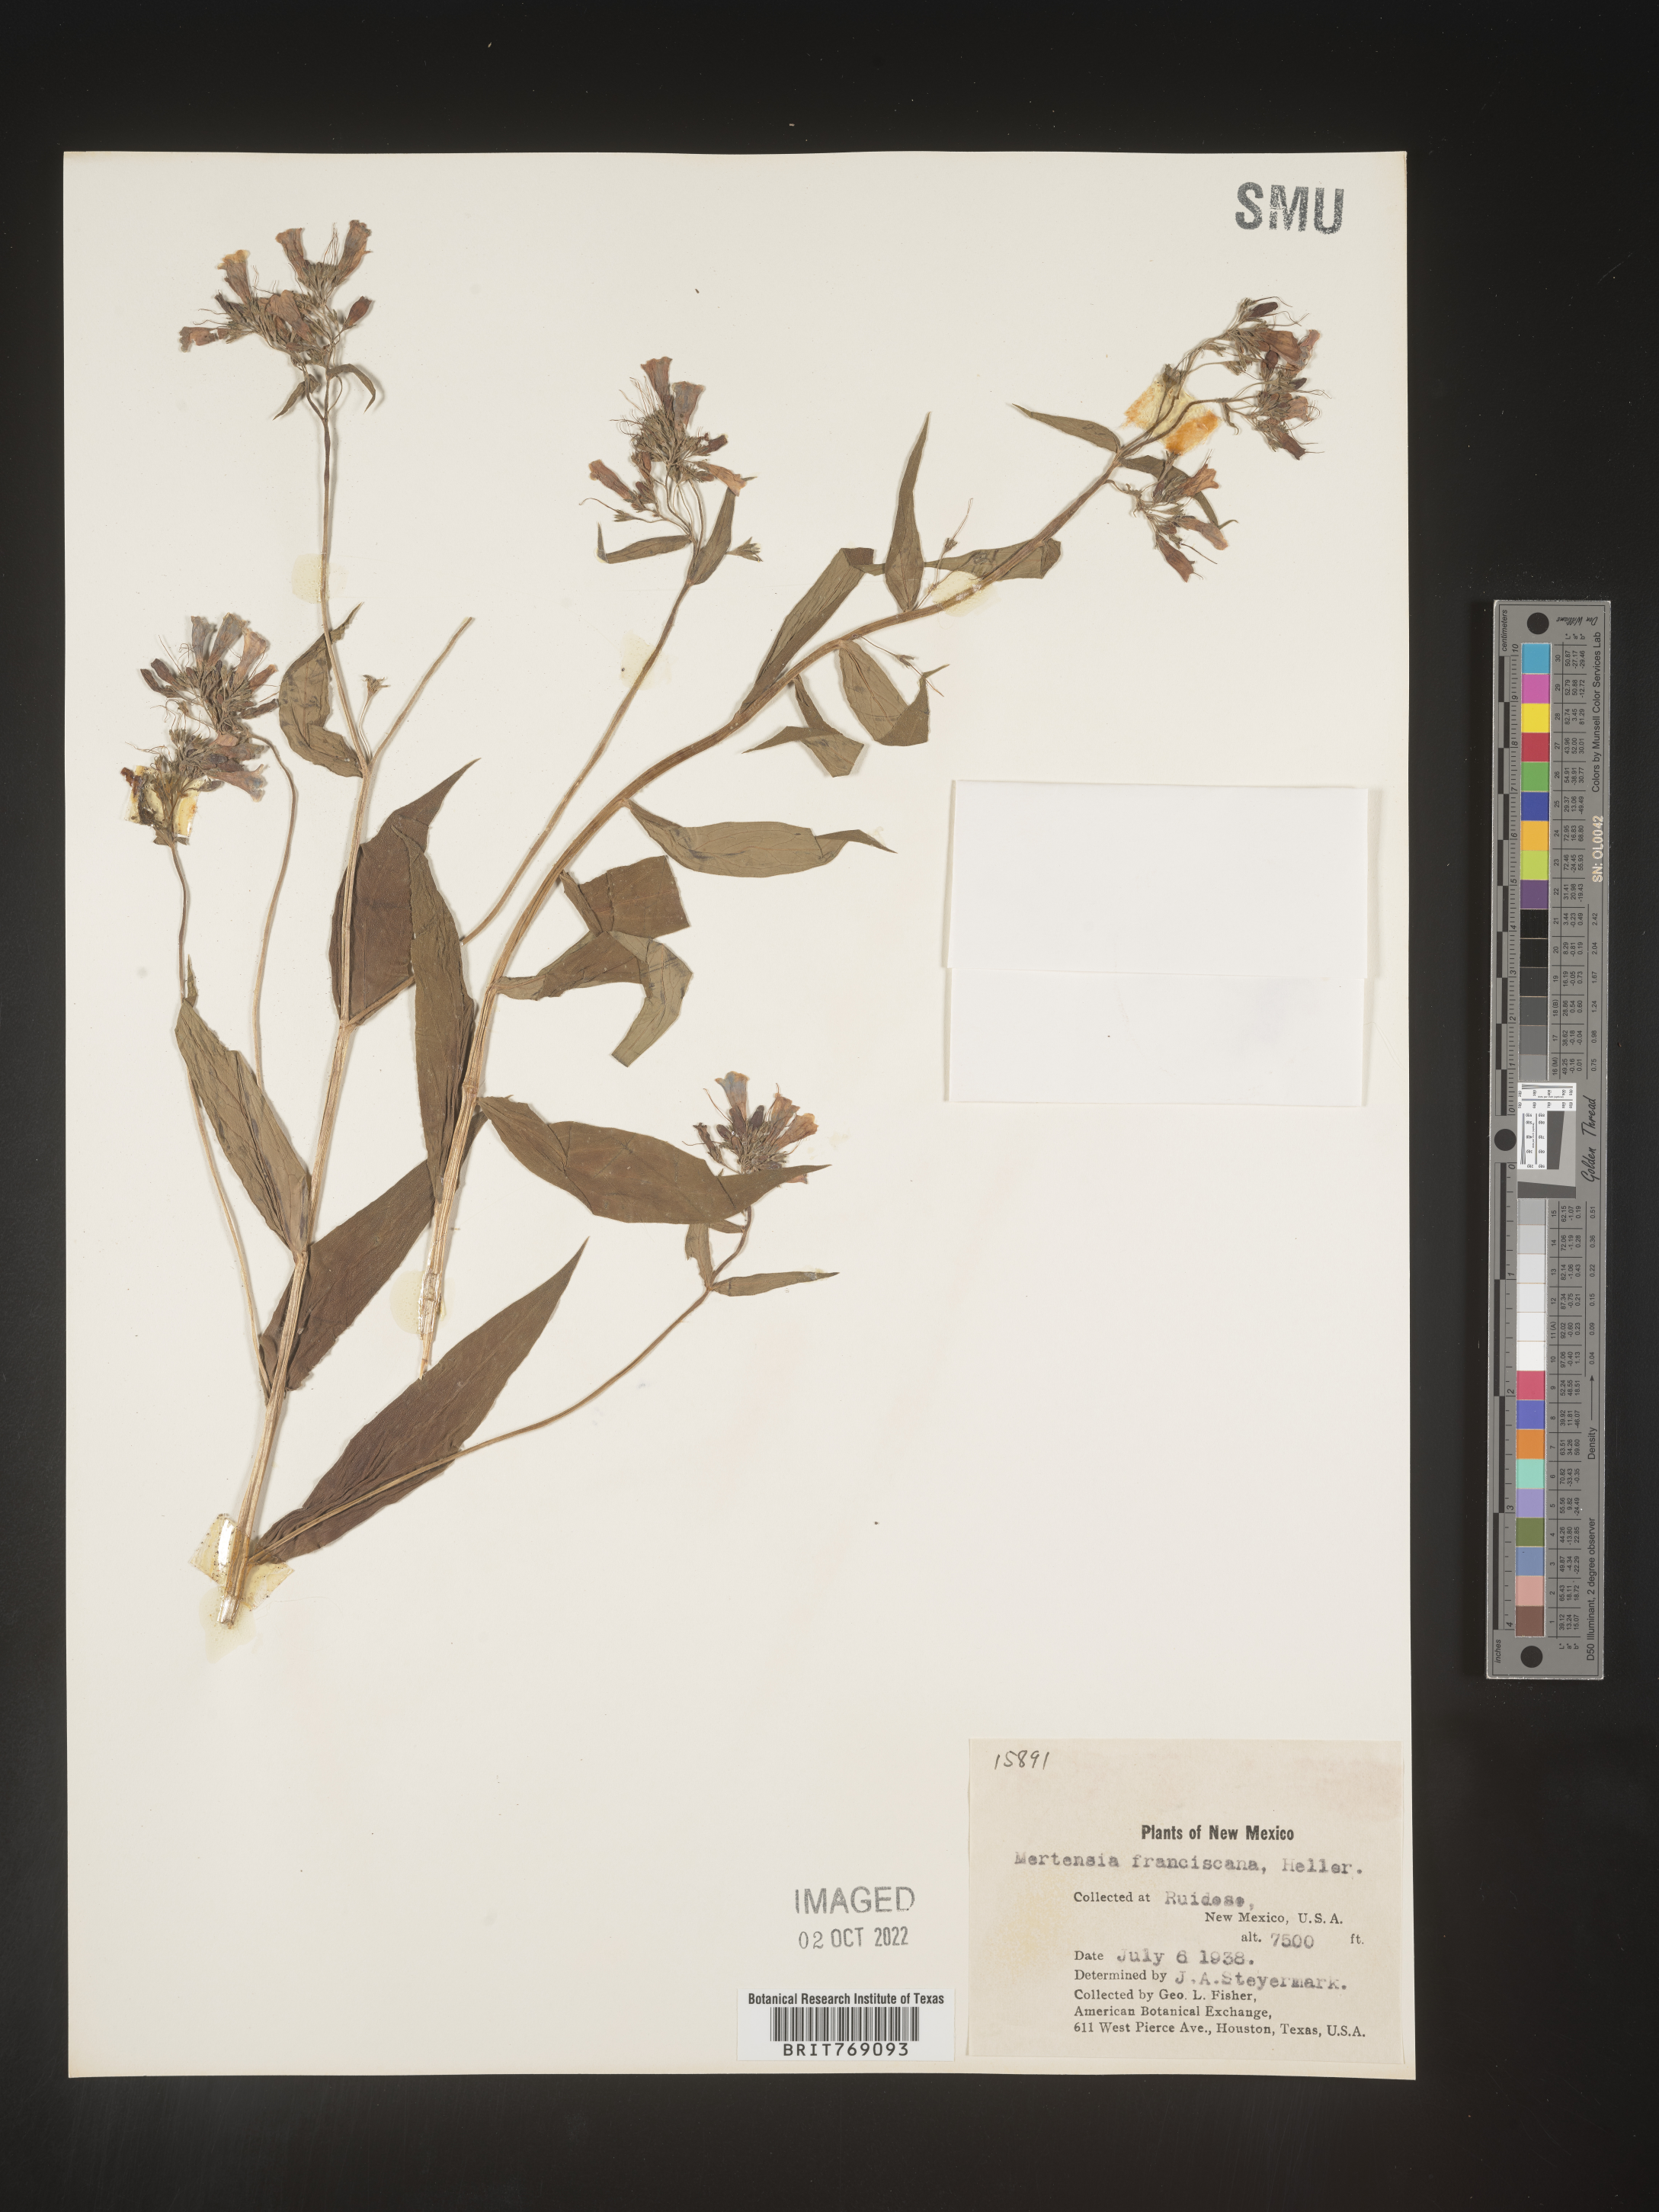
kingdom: Plantae
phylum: Tracheophyta
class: Magnoliopsida
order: Boraginales
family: Boraginaceae
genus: Mertensia
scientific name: Mertensia
